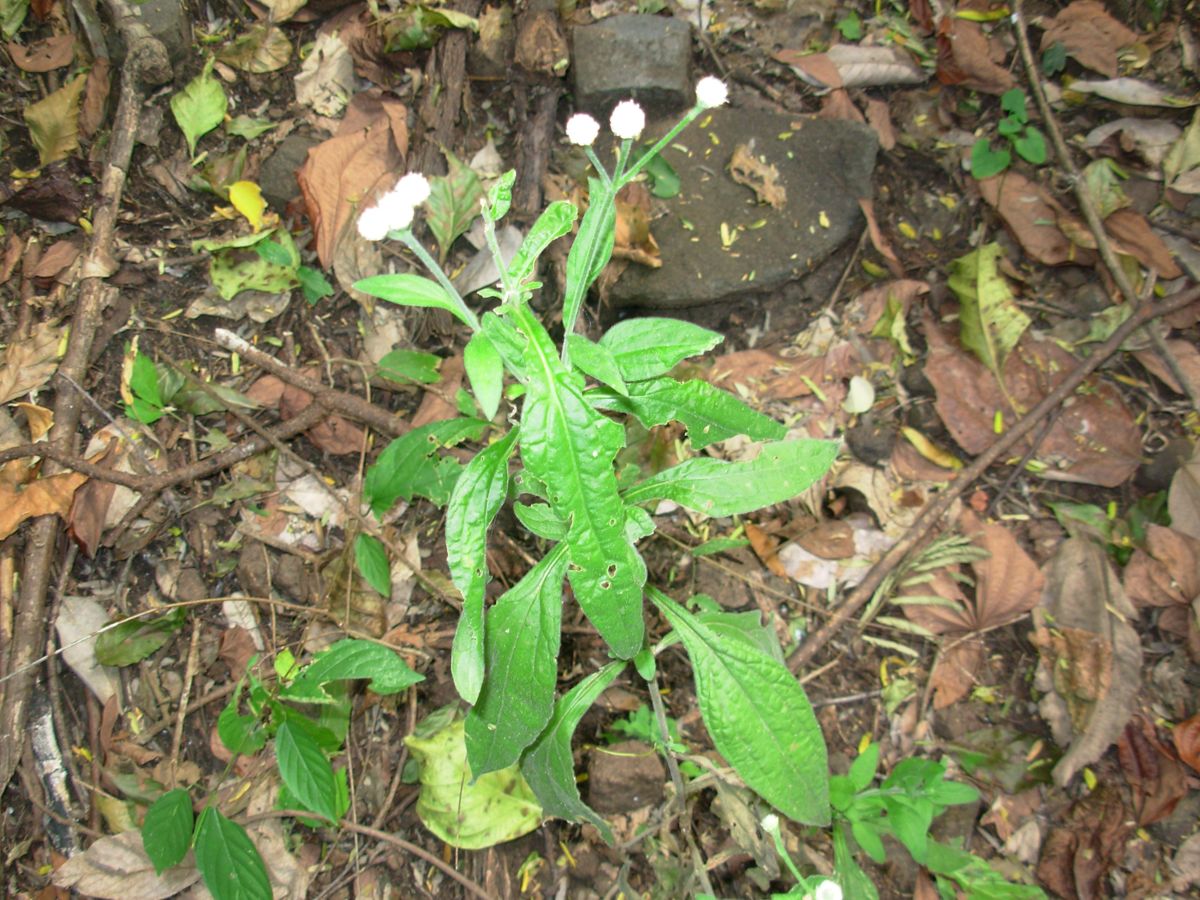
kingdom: Plantae
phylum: Tracheophyta
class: Magnoliopsida
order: Asterales
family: Asteraceae
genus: Isocarpha
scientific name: Isocarpha oppositifolia
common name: Rio grande pearlhead
